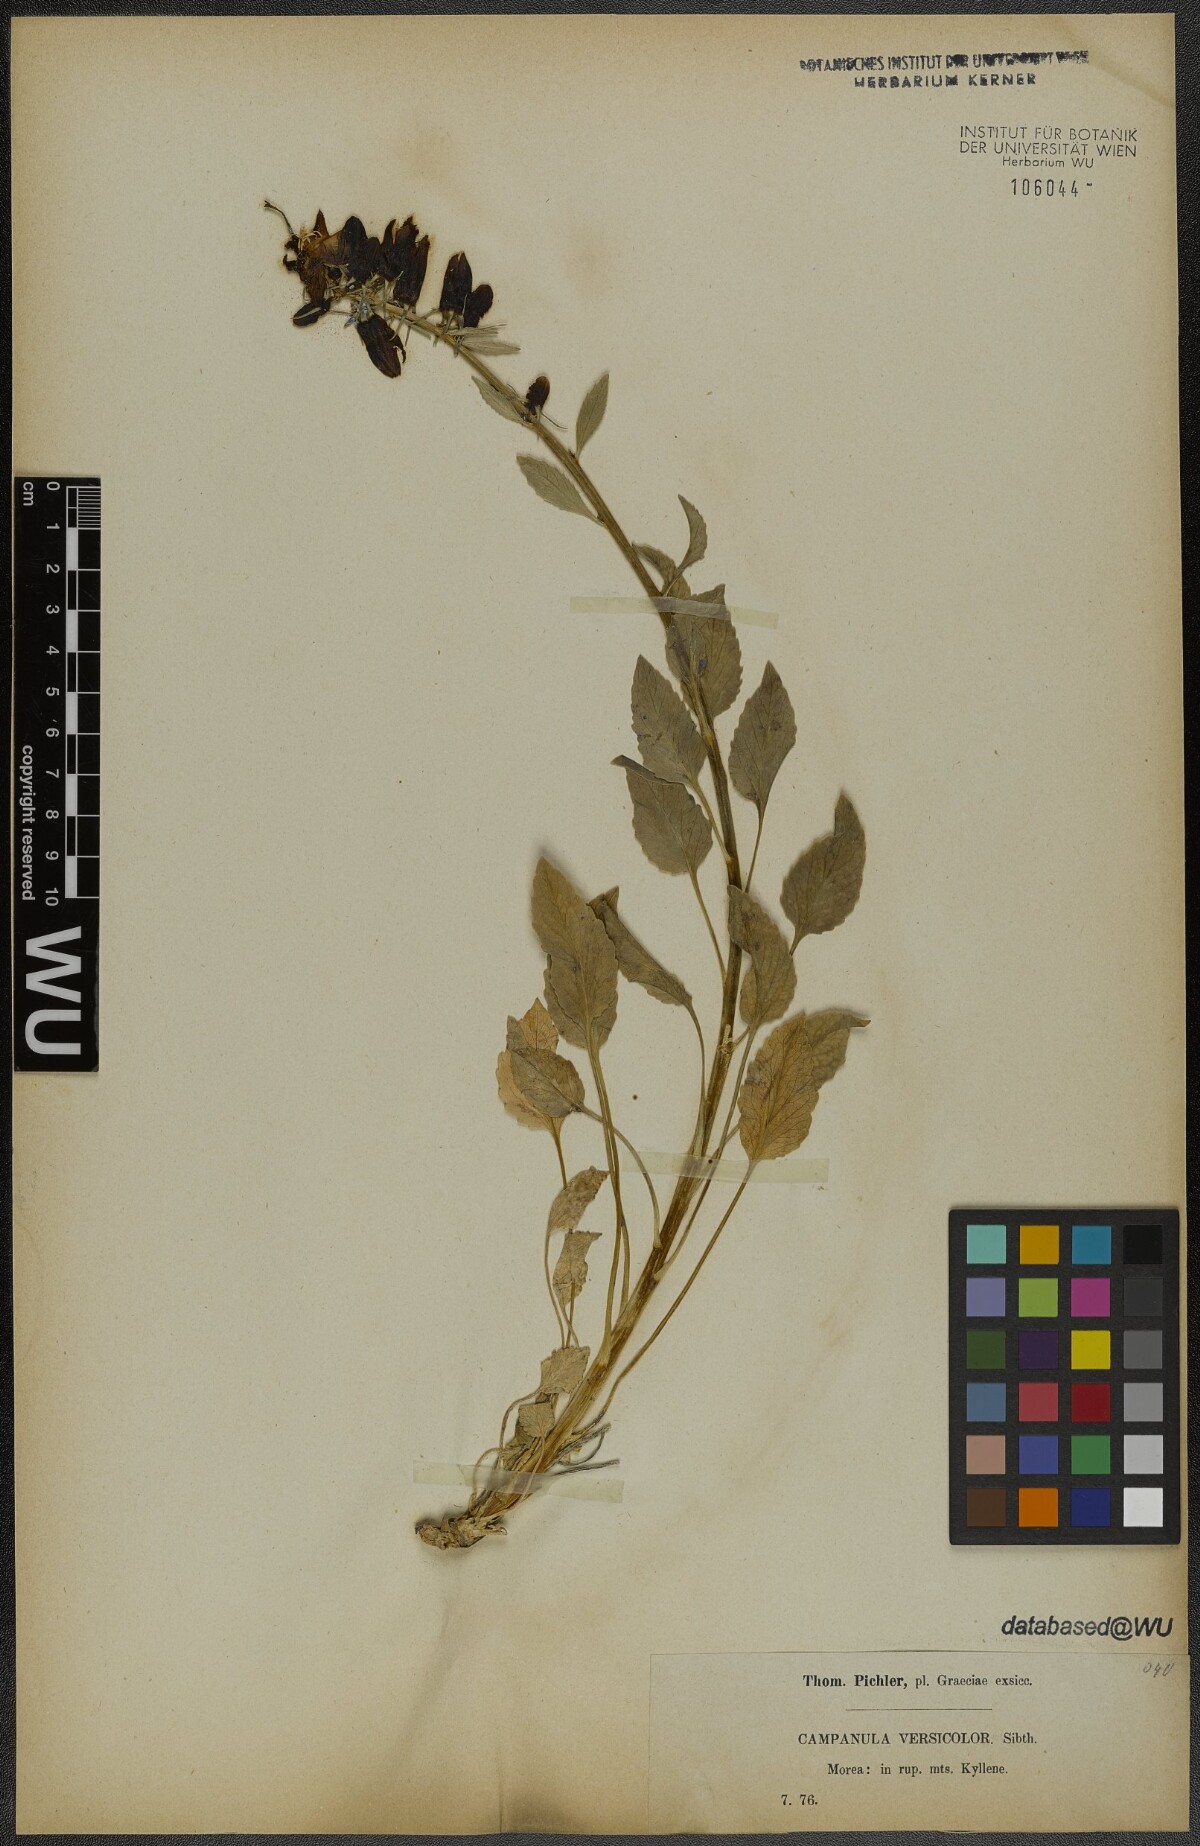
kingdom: Plantae
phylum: Tracheophyta
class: Magnoliopsida
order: Asterales
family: Campanulaceae
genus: Campanula
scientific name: Campanula versicolor
